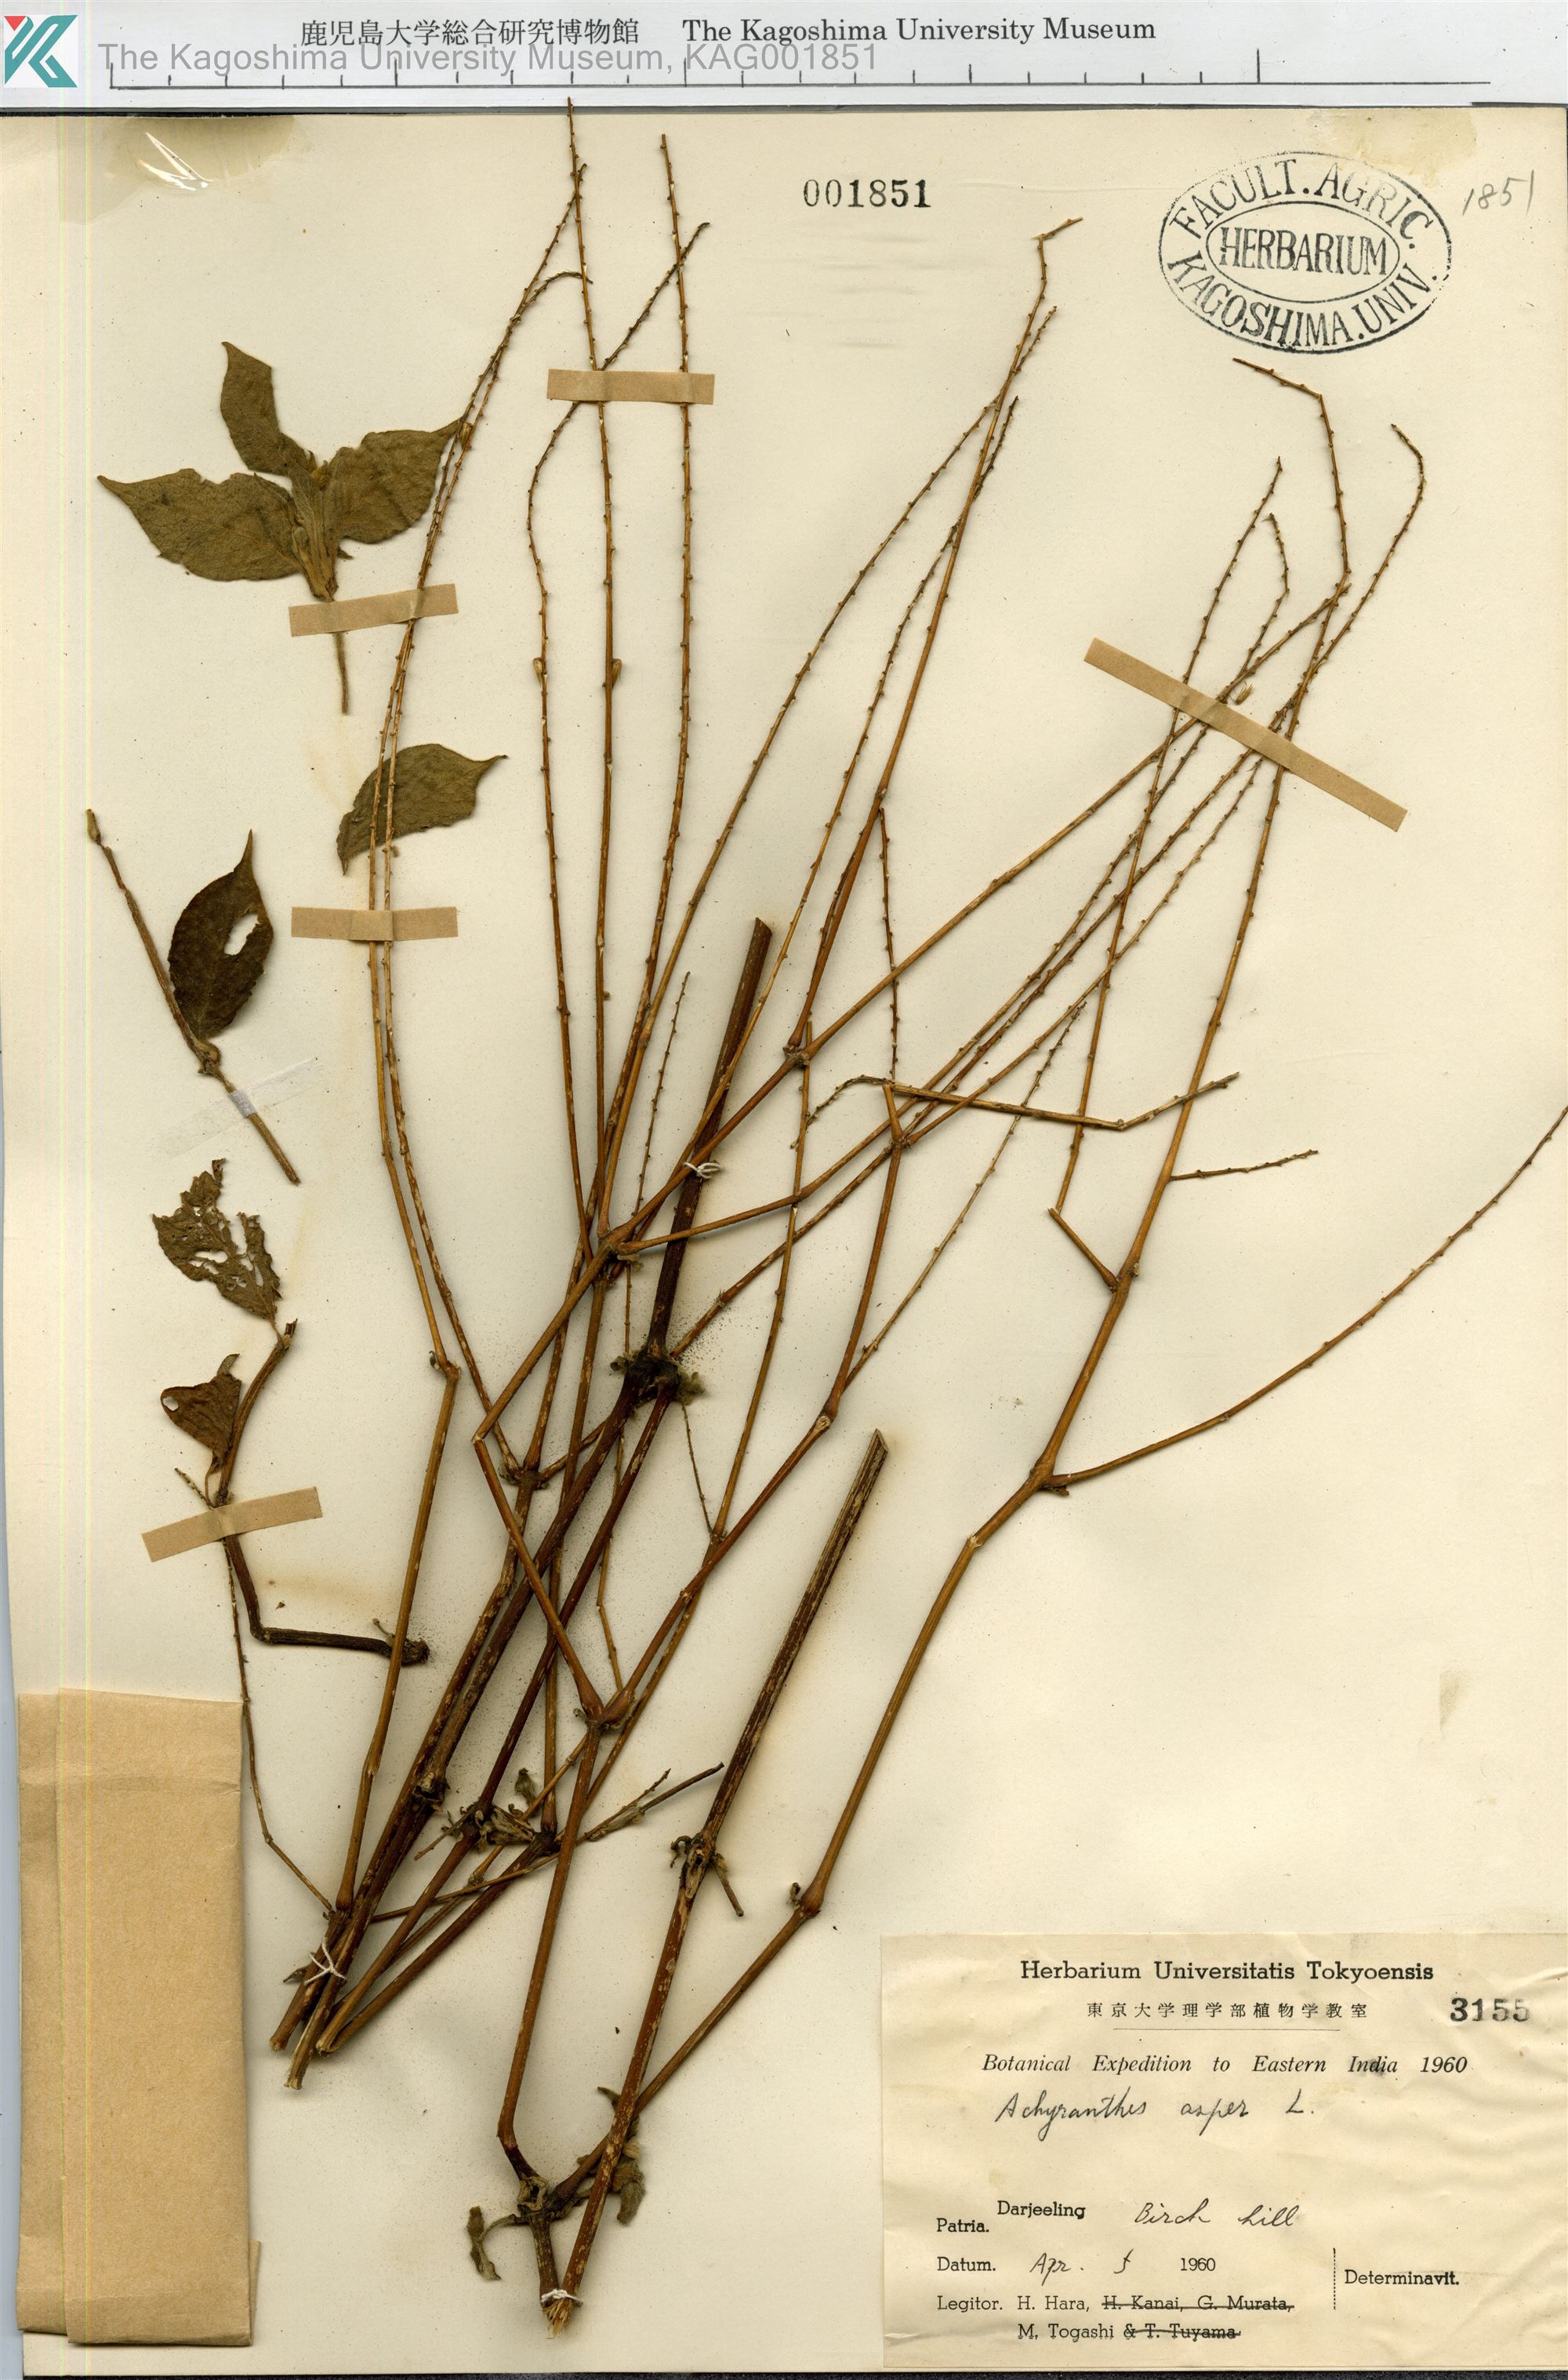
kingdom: Plantae
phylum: Tracheophyta
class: Magnoliopsida
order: Caryophyllales
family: Amaranthaceae
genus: Achyranthes
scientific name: Achyranthes aspera
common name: Devil's horsewhip
